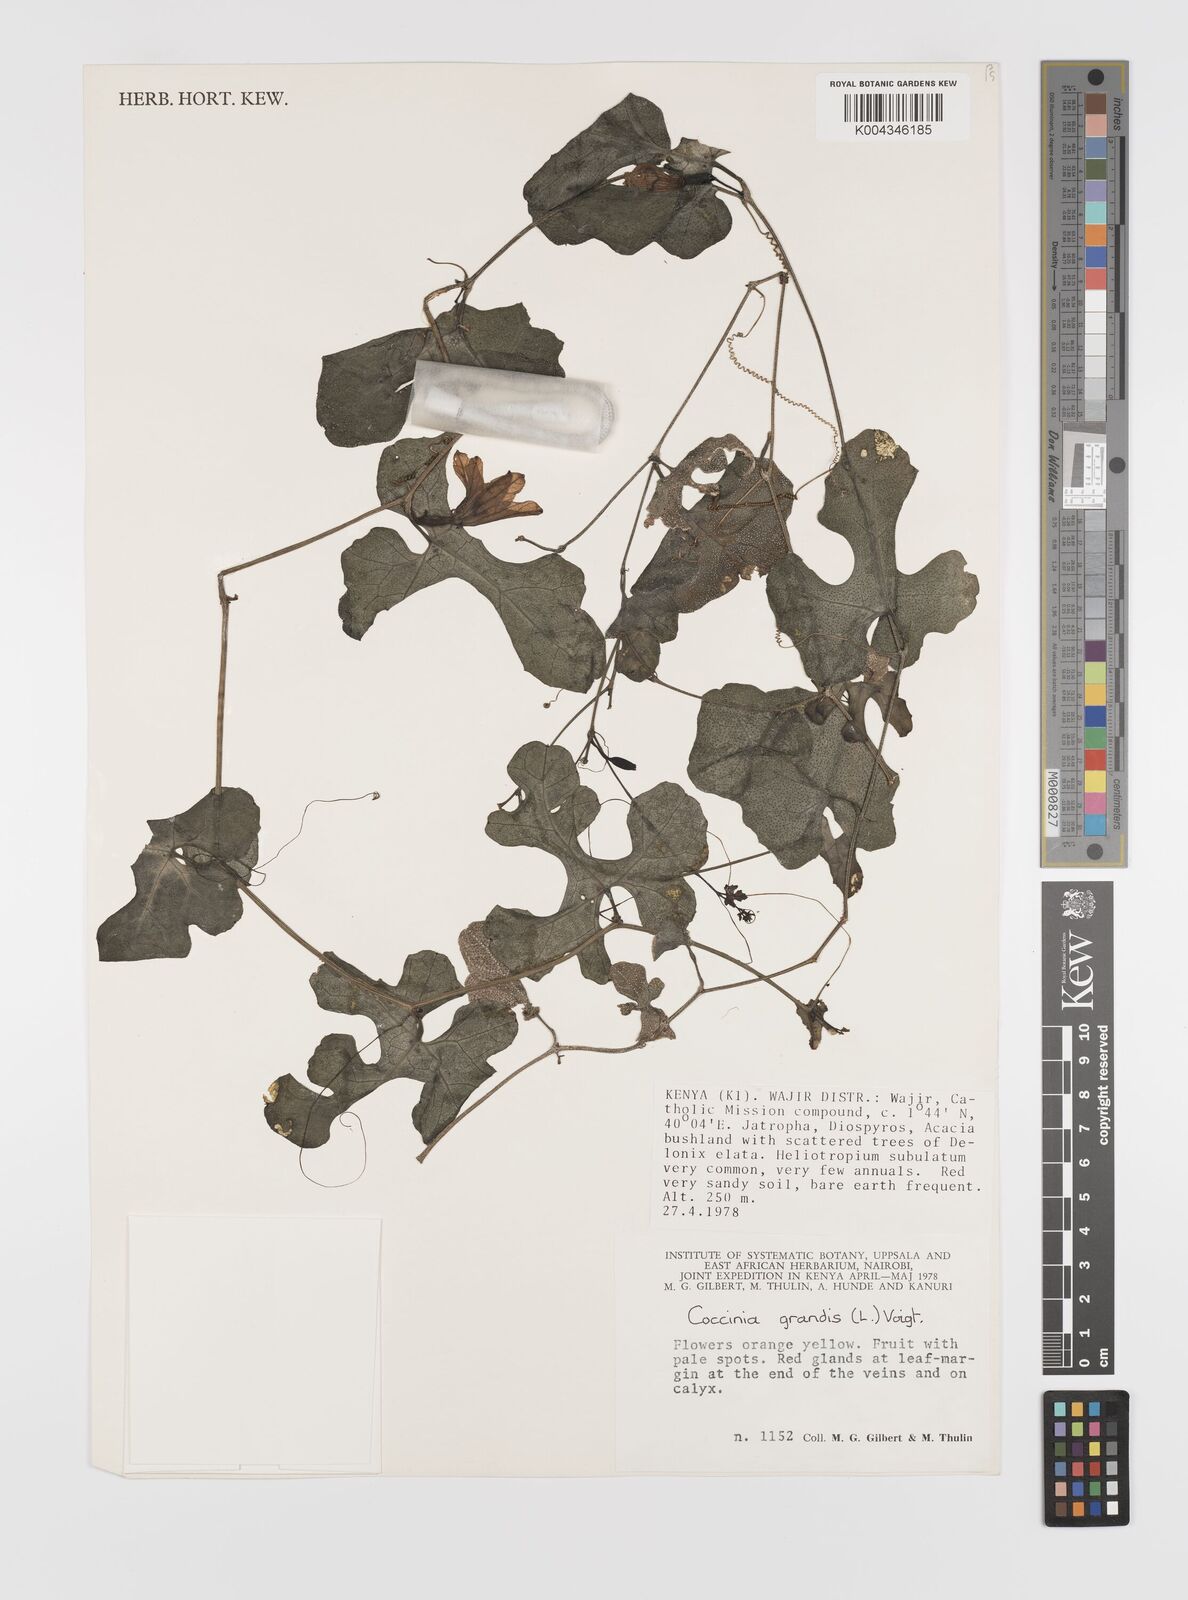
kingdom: Plantae
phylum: Tracheophyta
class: Magnoliopsida
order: Cucurbitales
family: Cucurbitaceae
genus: Coccinia
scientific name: Coccinia grandis
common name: Ivy gourd
